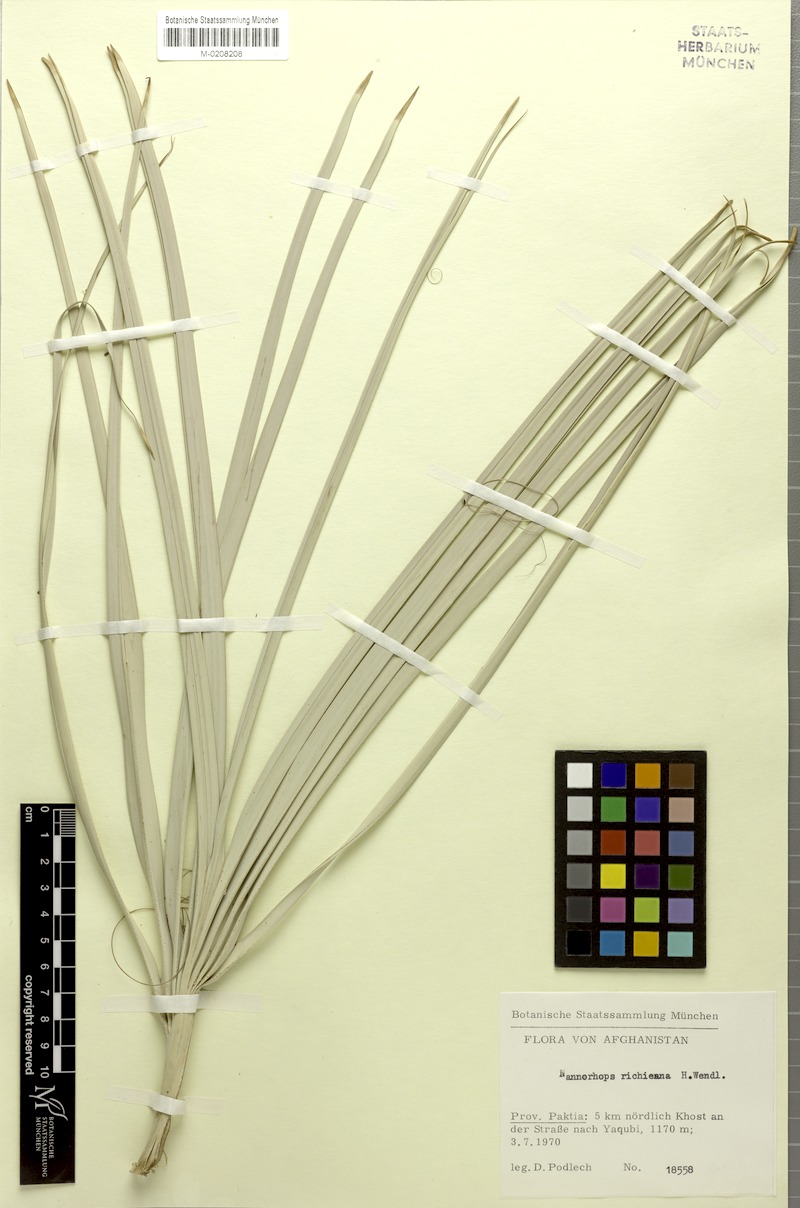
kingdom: Plantae
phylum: Tracheophyta
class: Liliopsida
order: Arecales
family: Arecaceae
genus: Nannorrhops
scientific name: Nannorrhops ritchieana
